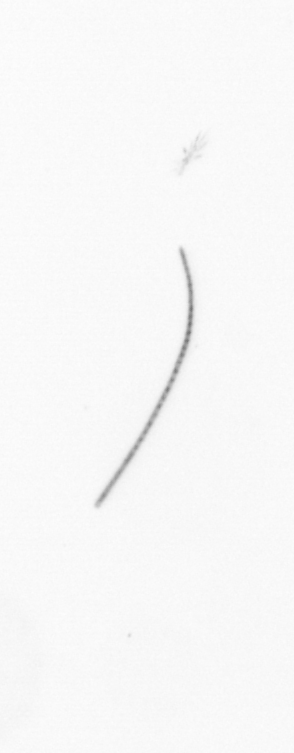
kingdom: Chromista
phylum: Ochrophyta
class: Bacillariophyceae
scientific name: Bacillariophyceae
